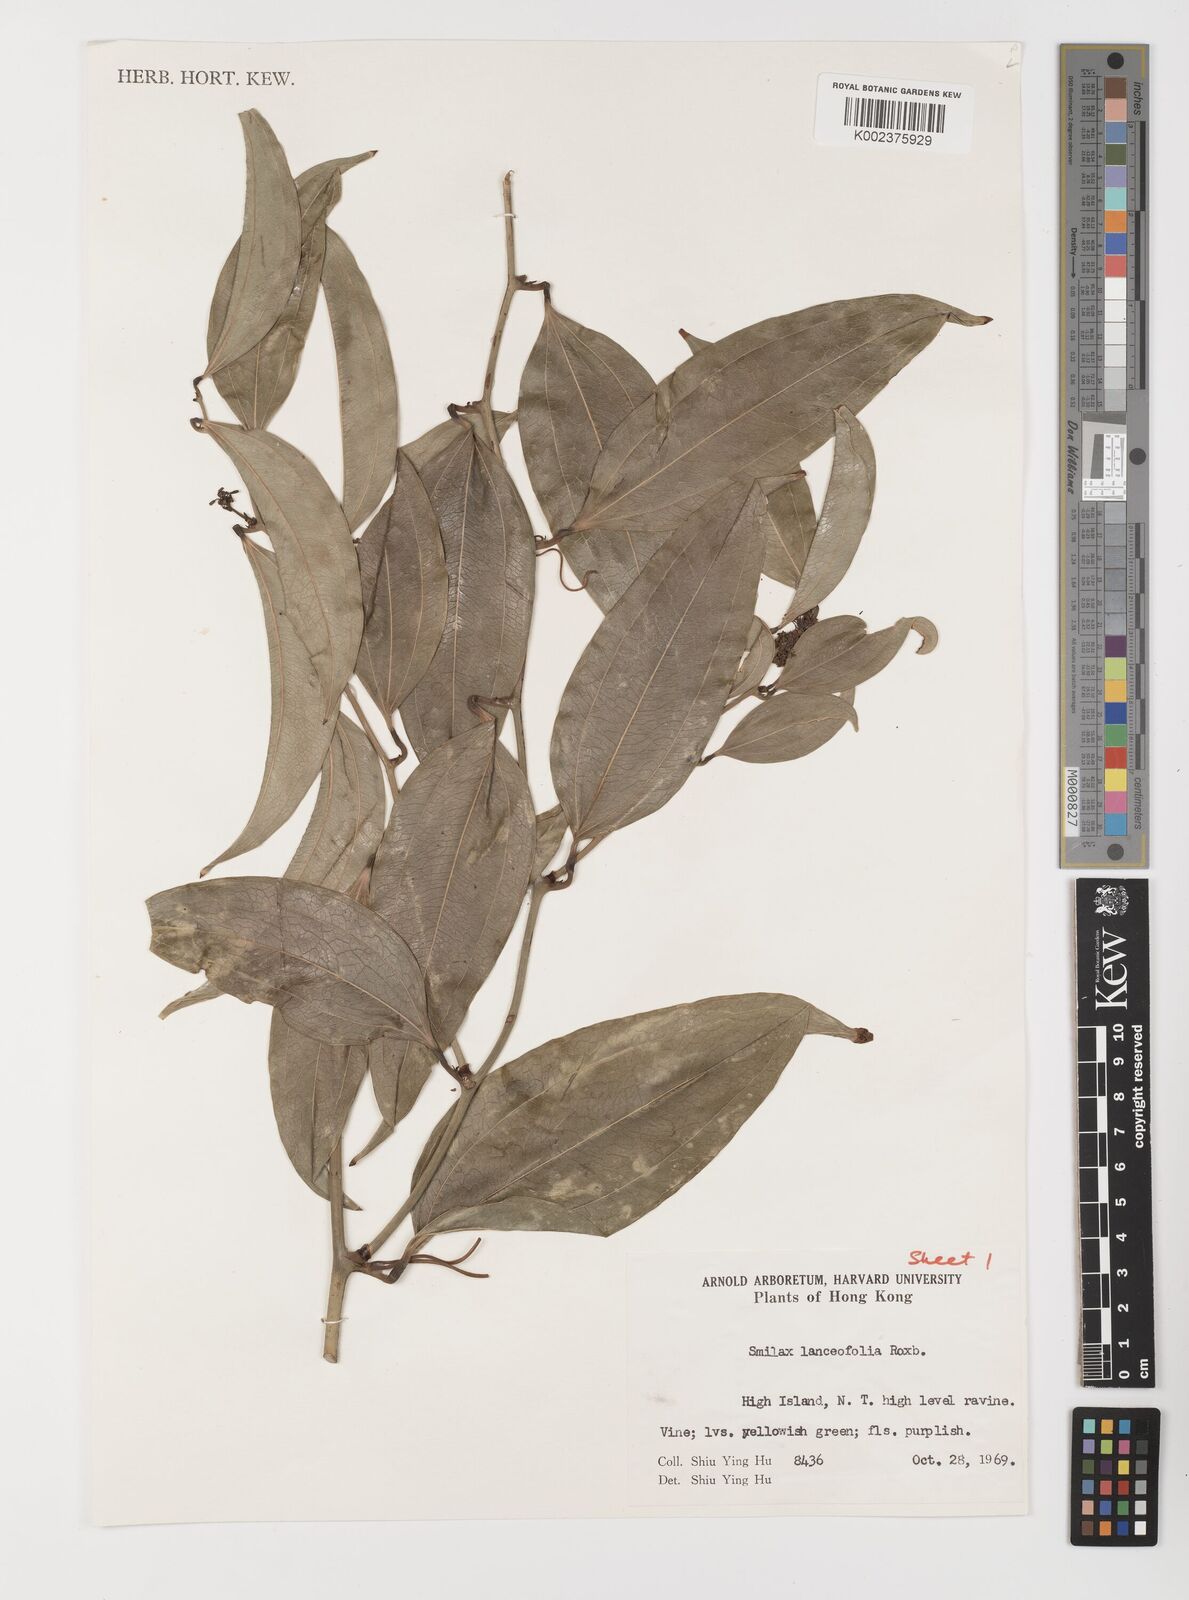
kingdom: Plantae
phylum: Tracheophyta
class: Liliopsida
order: Liliales
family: Smilacaceae
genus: Smilax
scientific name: Smilax lanceifolia
